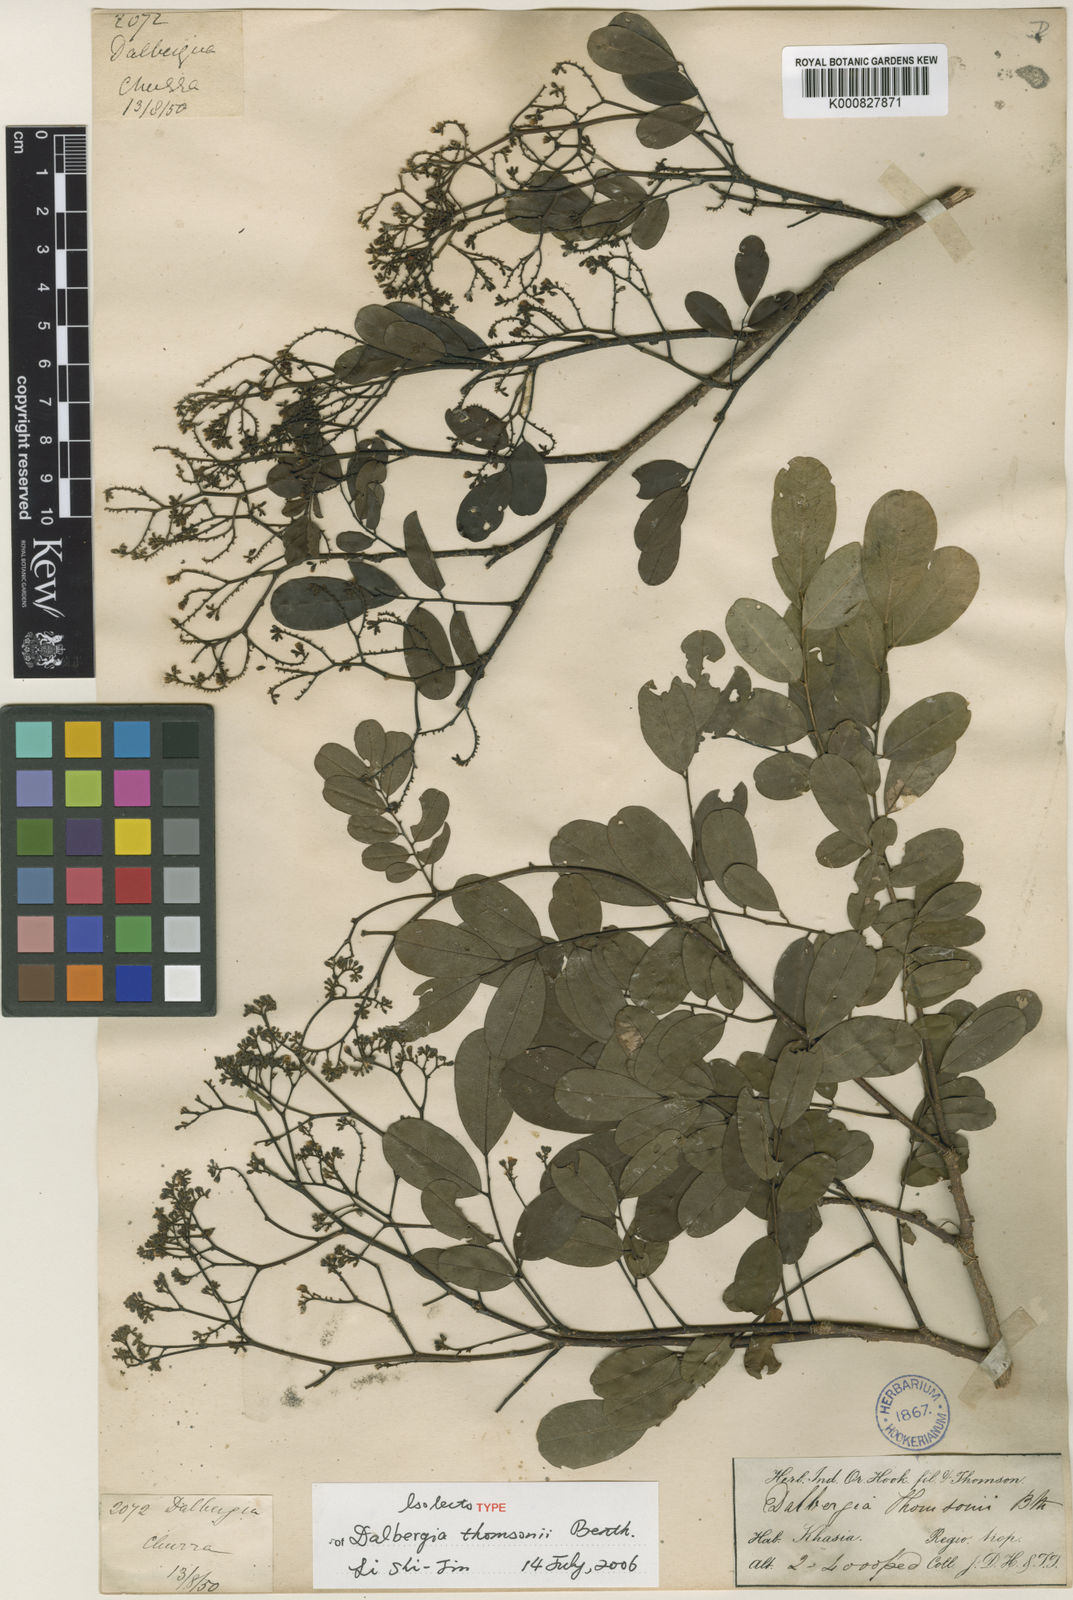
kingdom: Plantae
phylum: Tracheophyta
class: Magnoliopsida
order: Fabales
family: Fabaceae
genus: Dalbergia
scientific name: Dalbergia thomsonii
